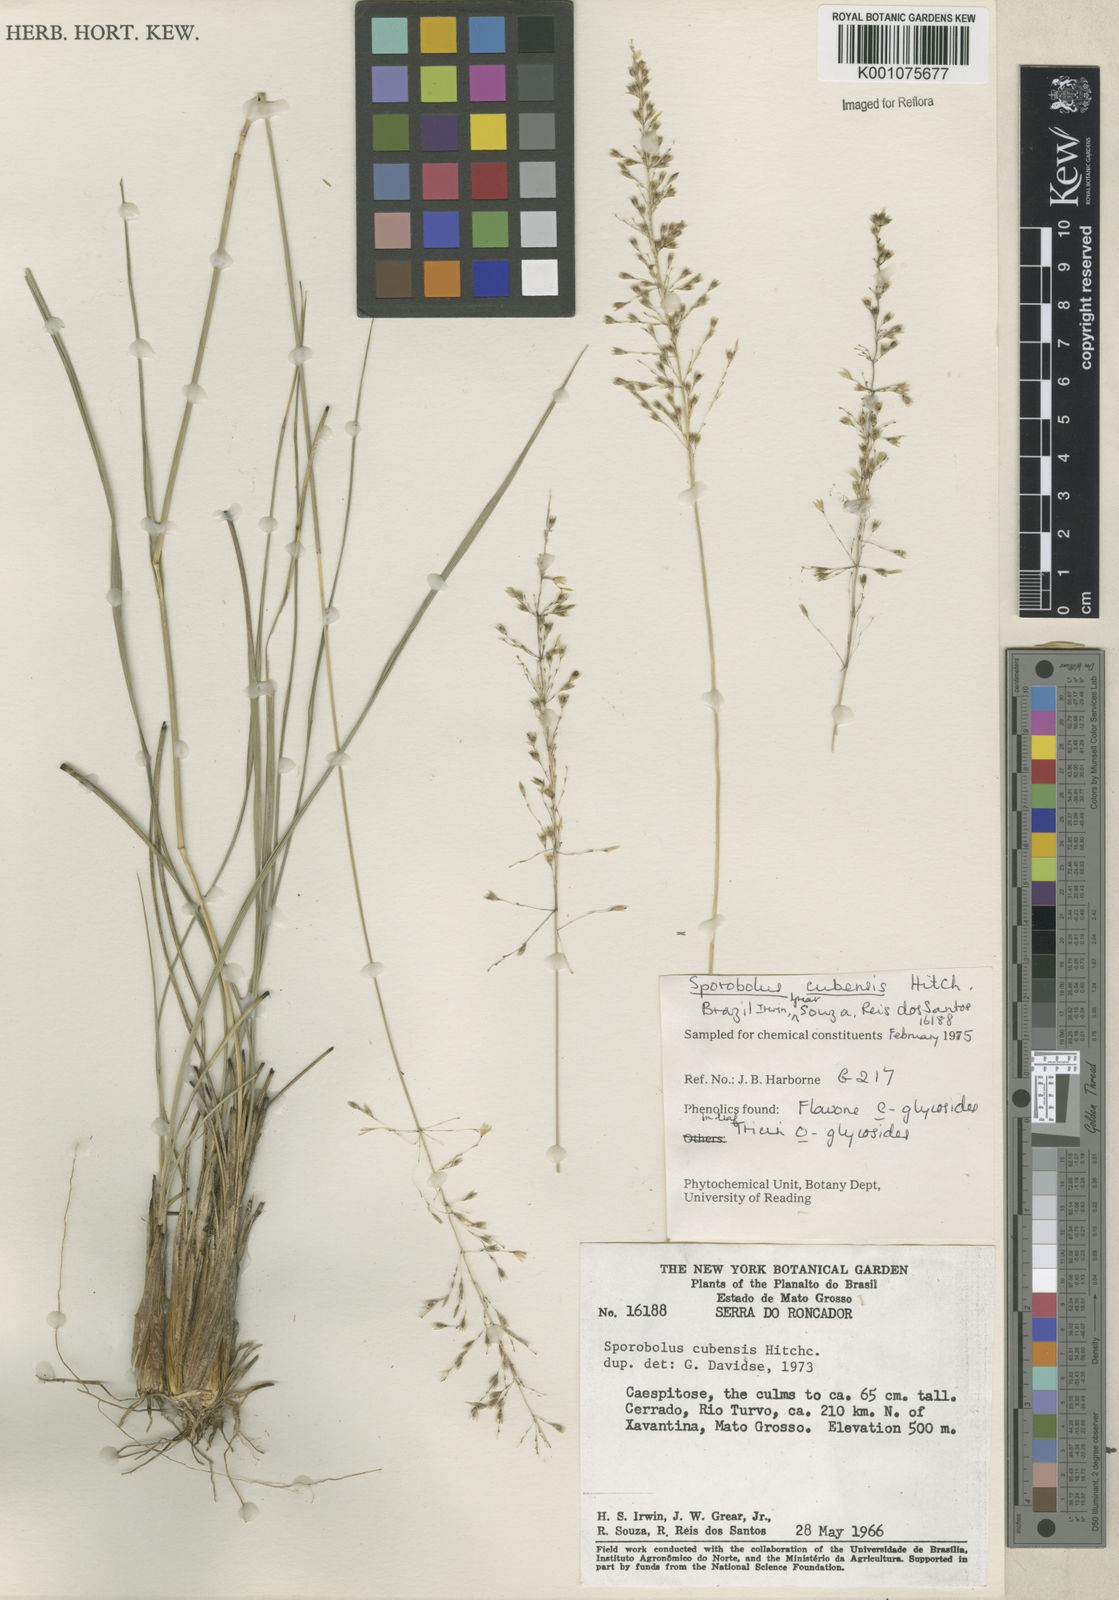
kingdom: Plantae
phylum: Tracheophyta
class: Liliopsida
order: Poales
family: Poaceae
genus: Sporobolus
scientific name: Sporobolus cubensis
